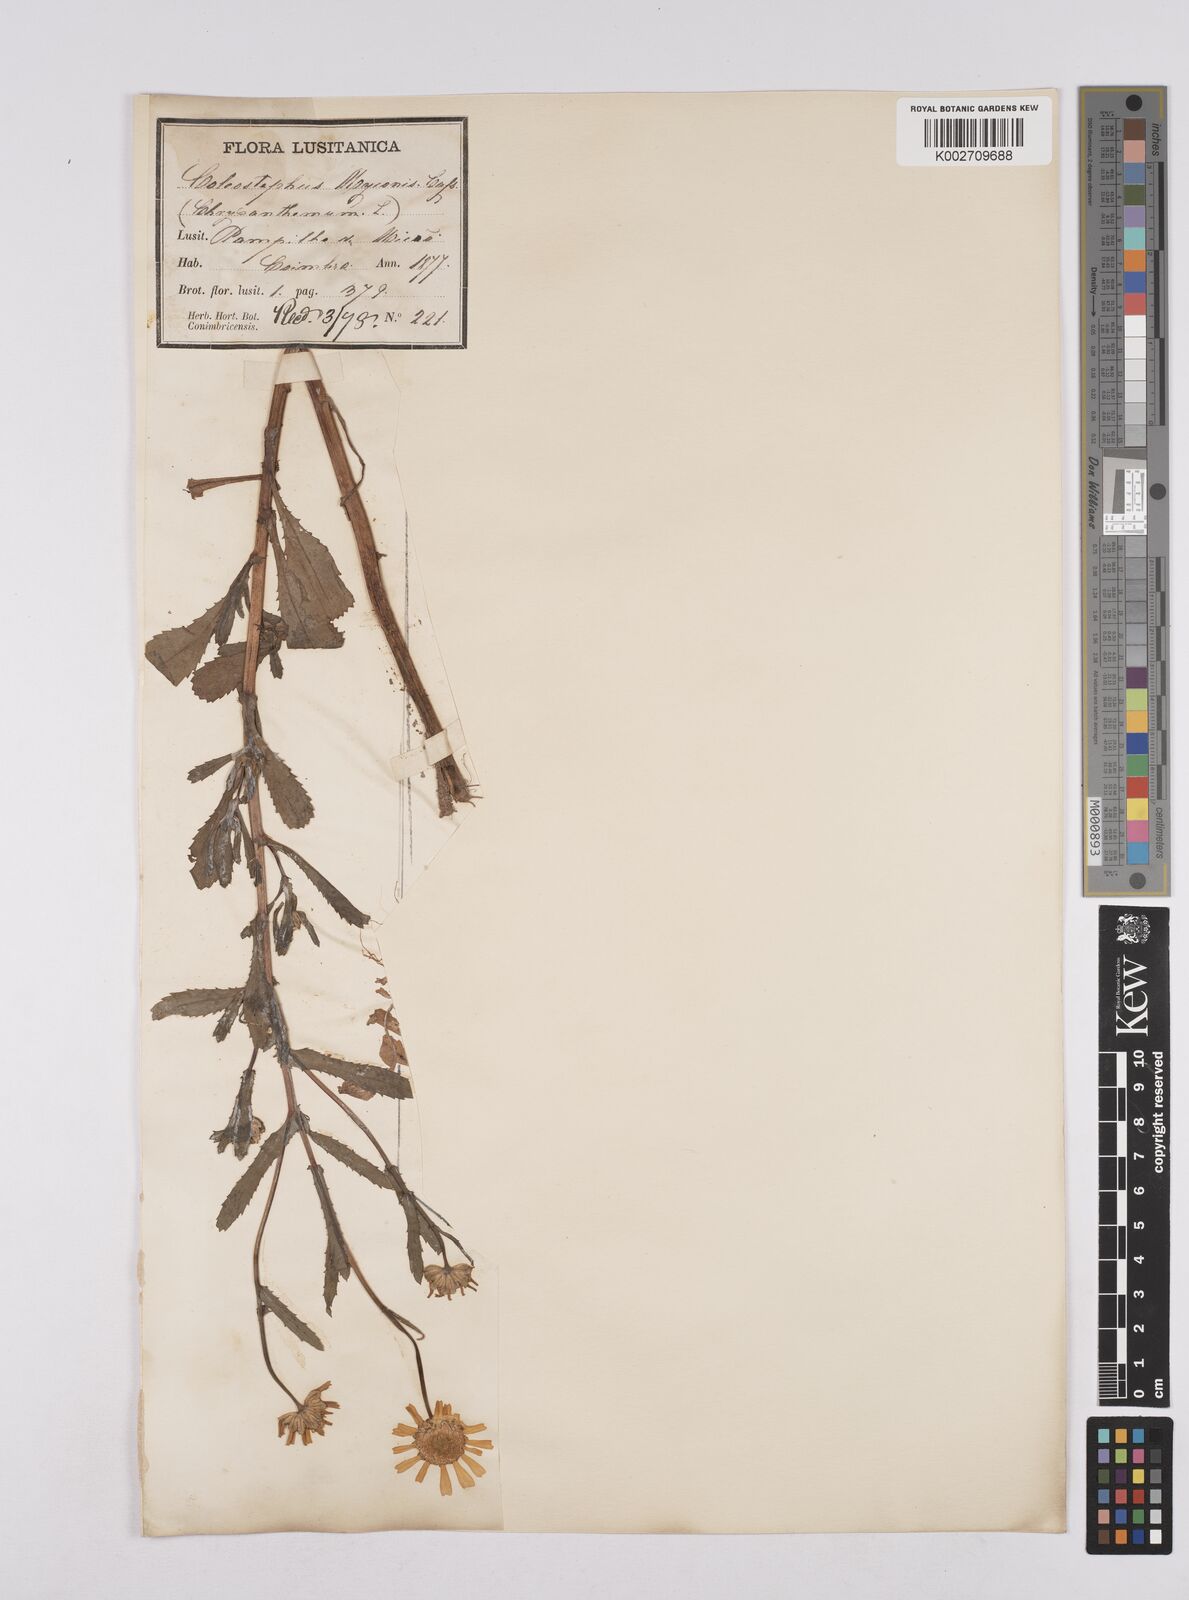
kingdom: Plantae
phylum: Tracheophyta
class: Magnoliopsida
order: Asterales
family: Asteraceae
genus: Coleostephus
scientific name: Coleostephus myconis
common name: Mediterranean marigold
